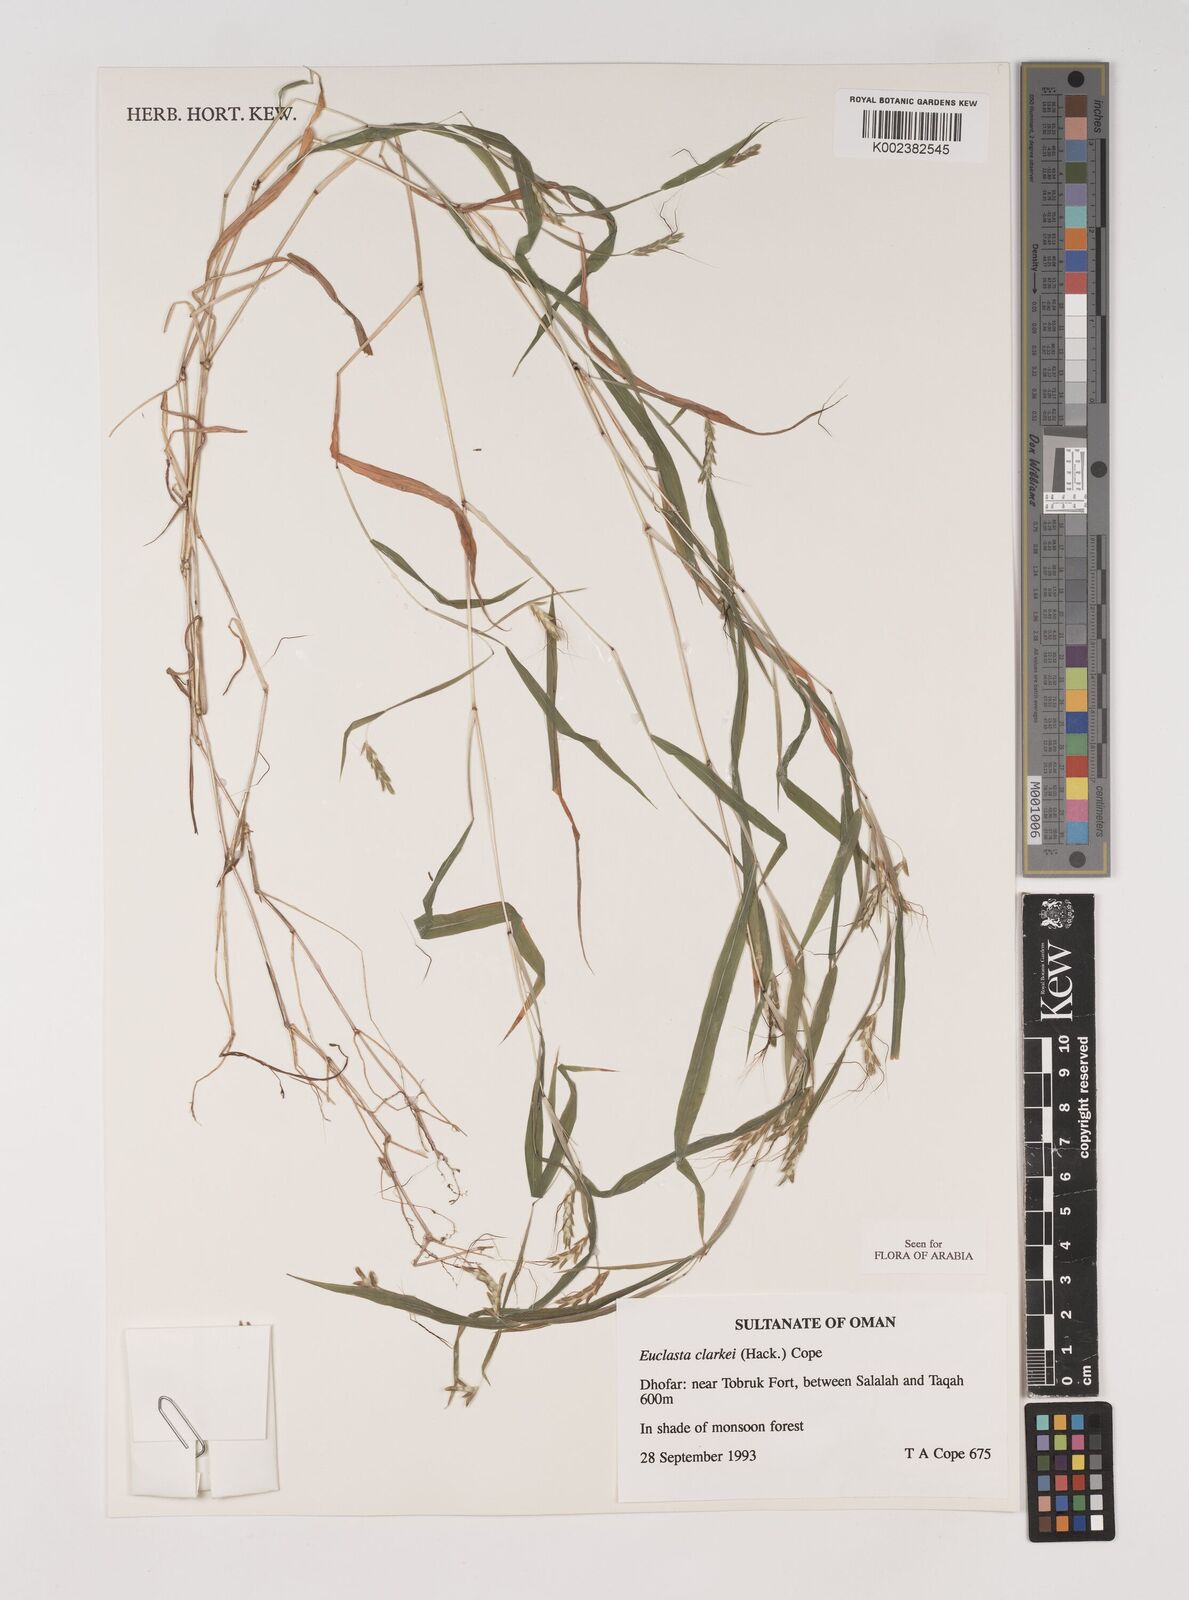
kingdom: Plantae
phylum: Tracheophyta
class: Liliopsida
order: Poales
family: Poaceae
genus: Euclasta
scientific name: Euclasta clarkei
